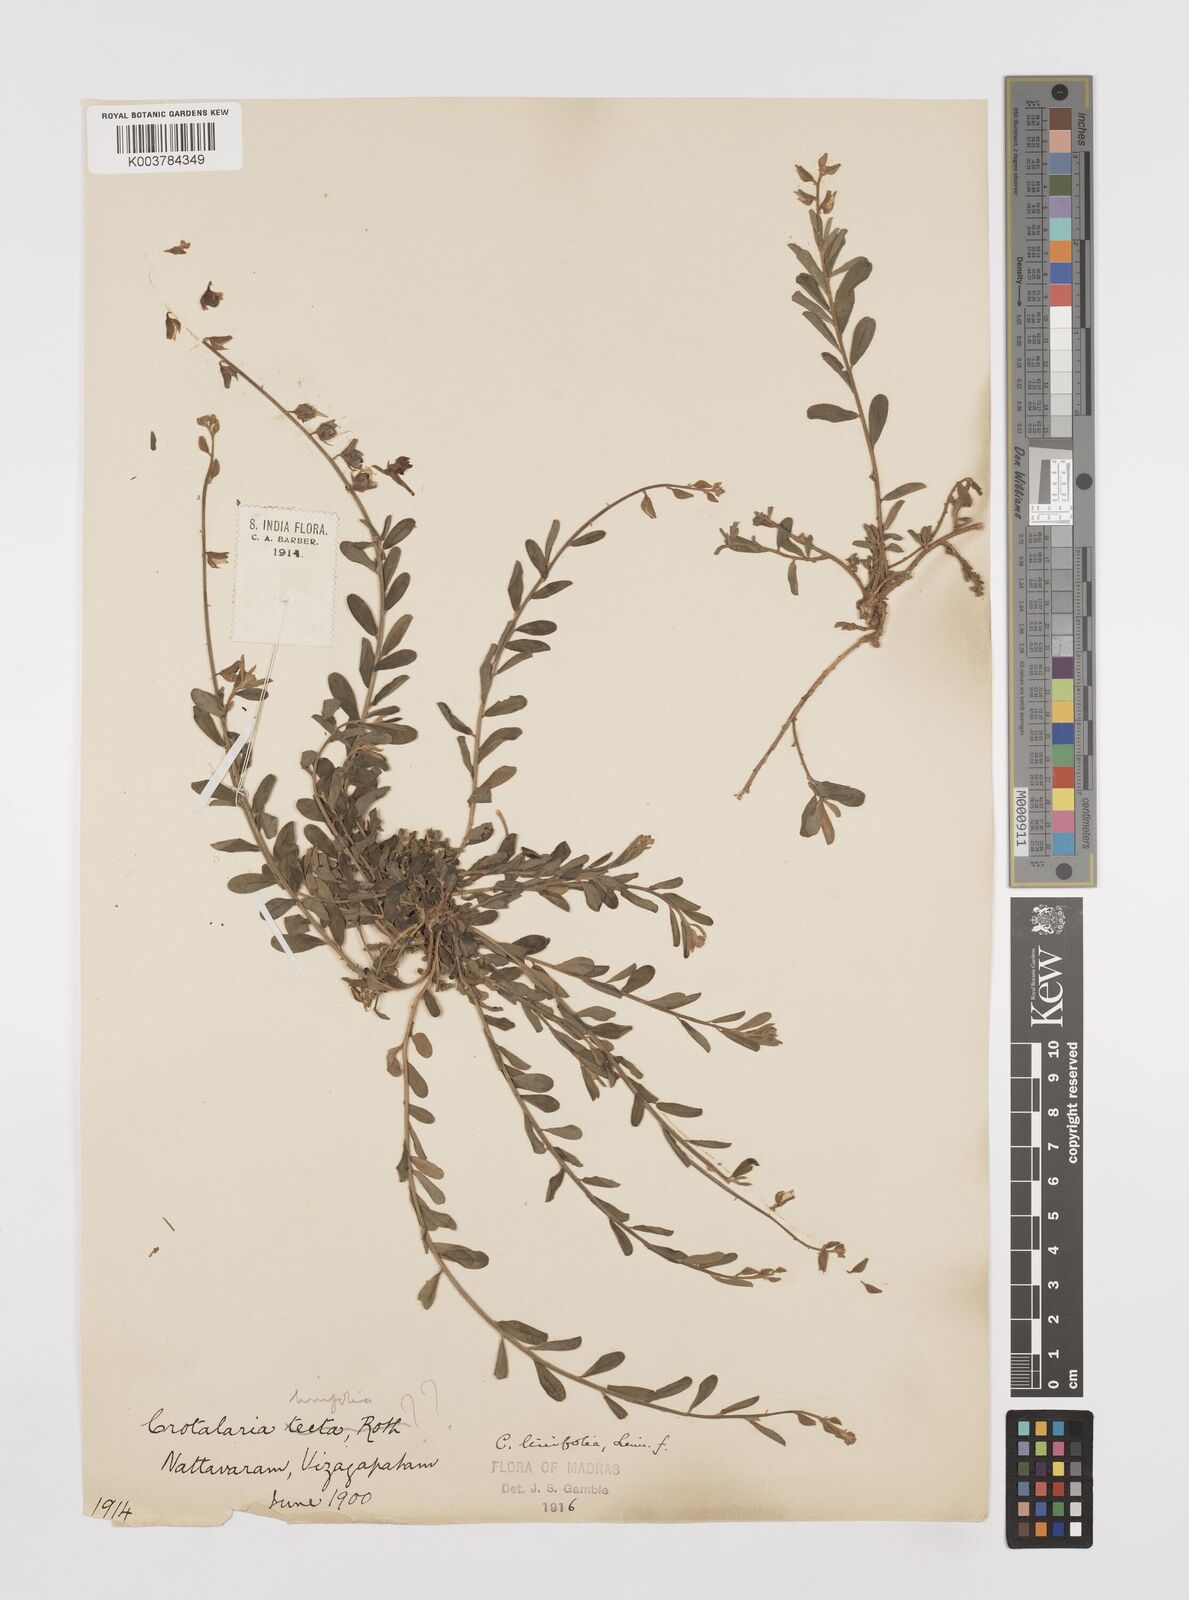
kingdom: Plantae
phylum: Tracheophyta
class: Magnoliopsida
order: Fabales
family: Fabaceae
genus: Crotalaria
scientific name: Crotalaria linifolia
